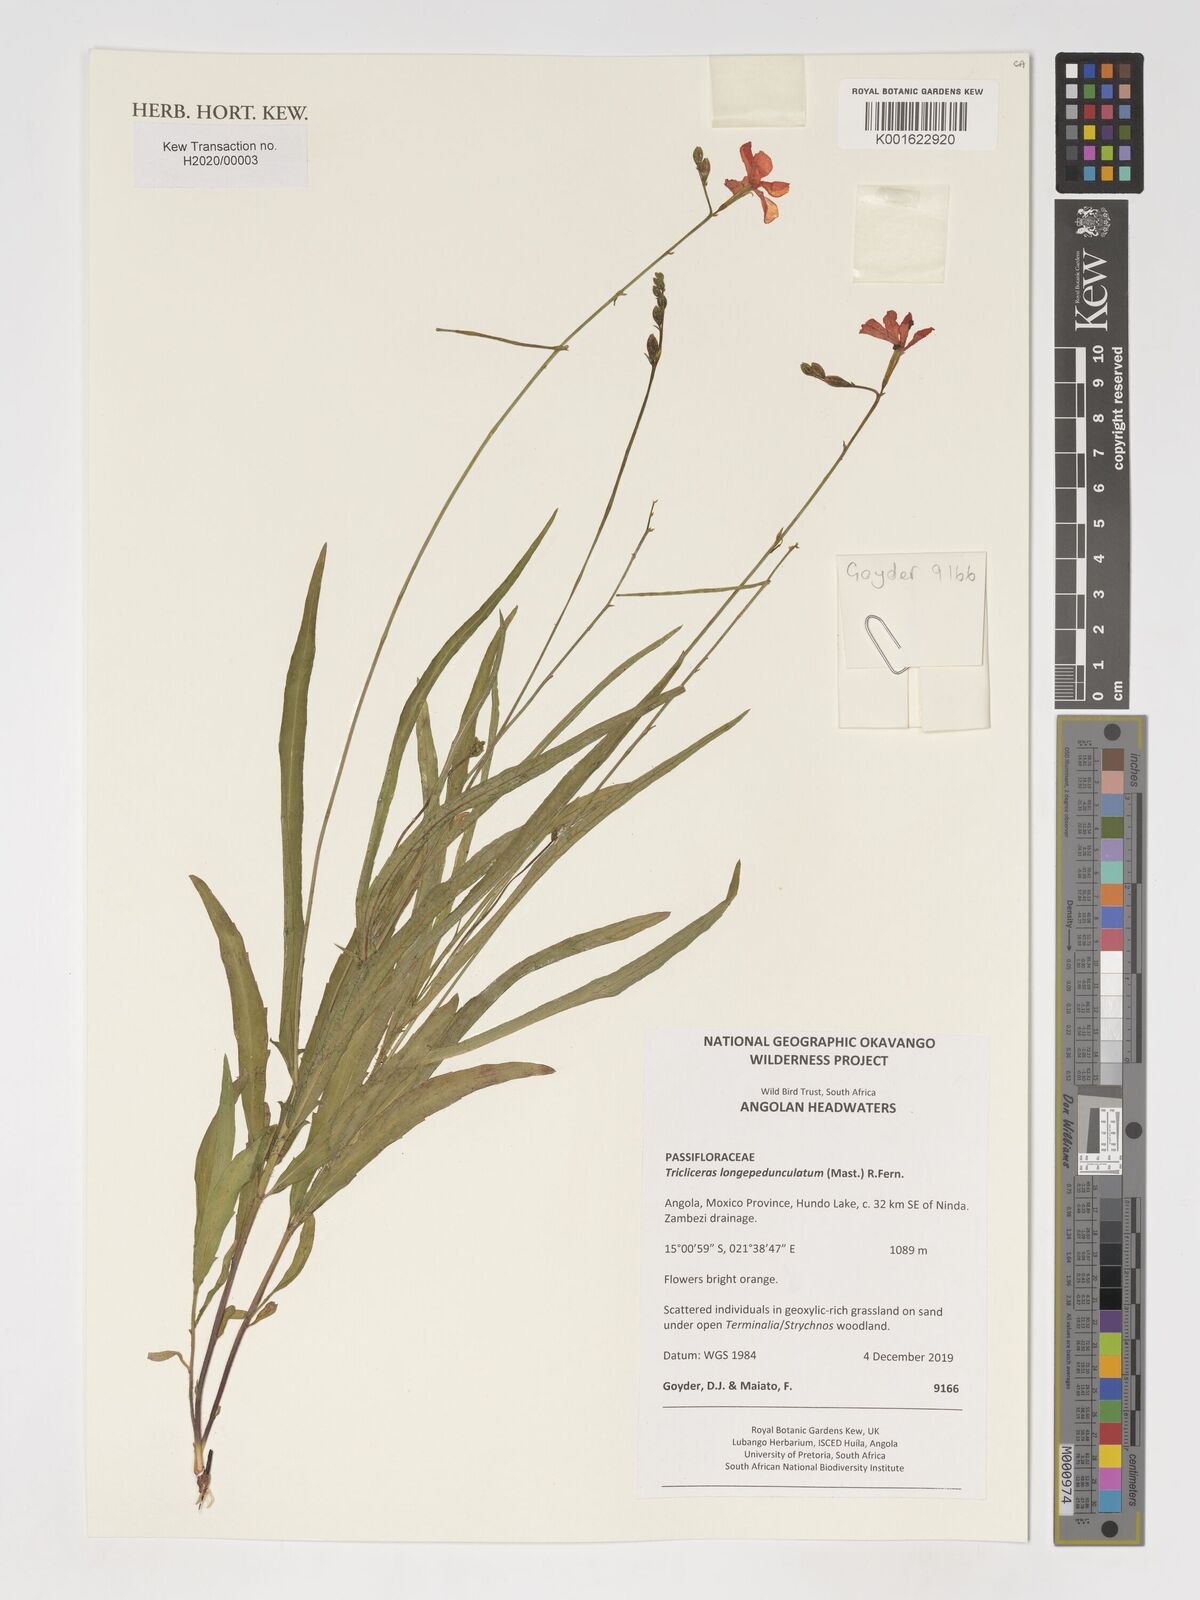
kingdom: Plantae
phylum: Tracheophyta
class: Magnoliopsida
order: Malpighiales
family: Turneraceae
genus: Tricliceras
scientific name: Tricliceras longepedunculatum
